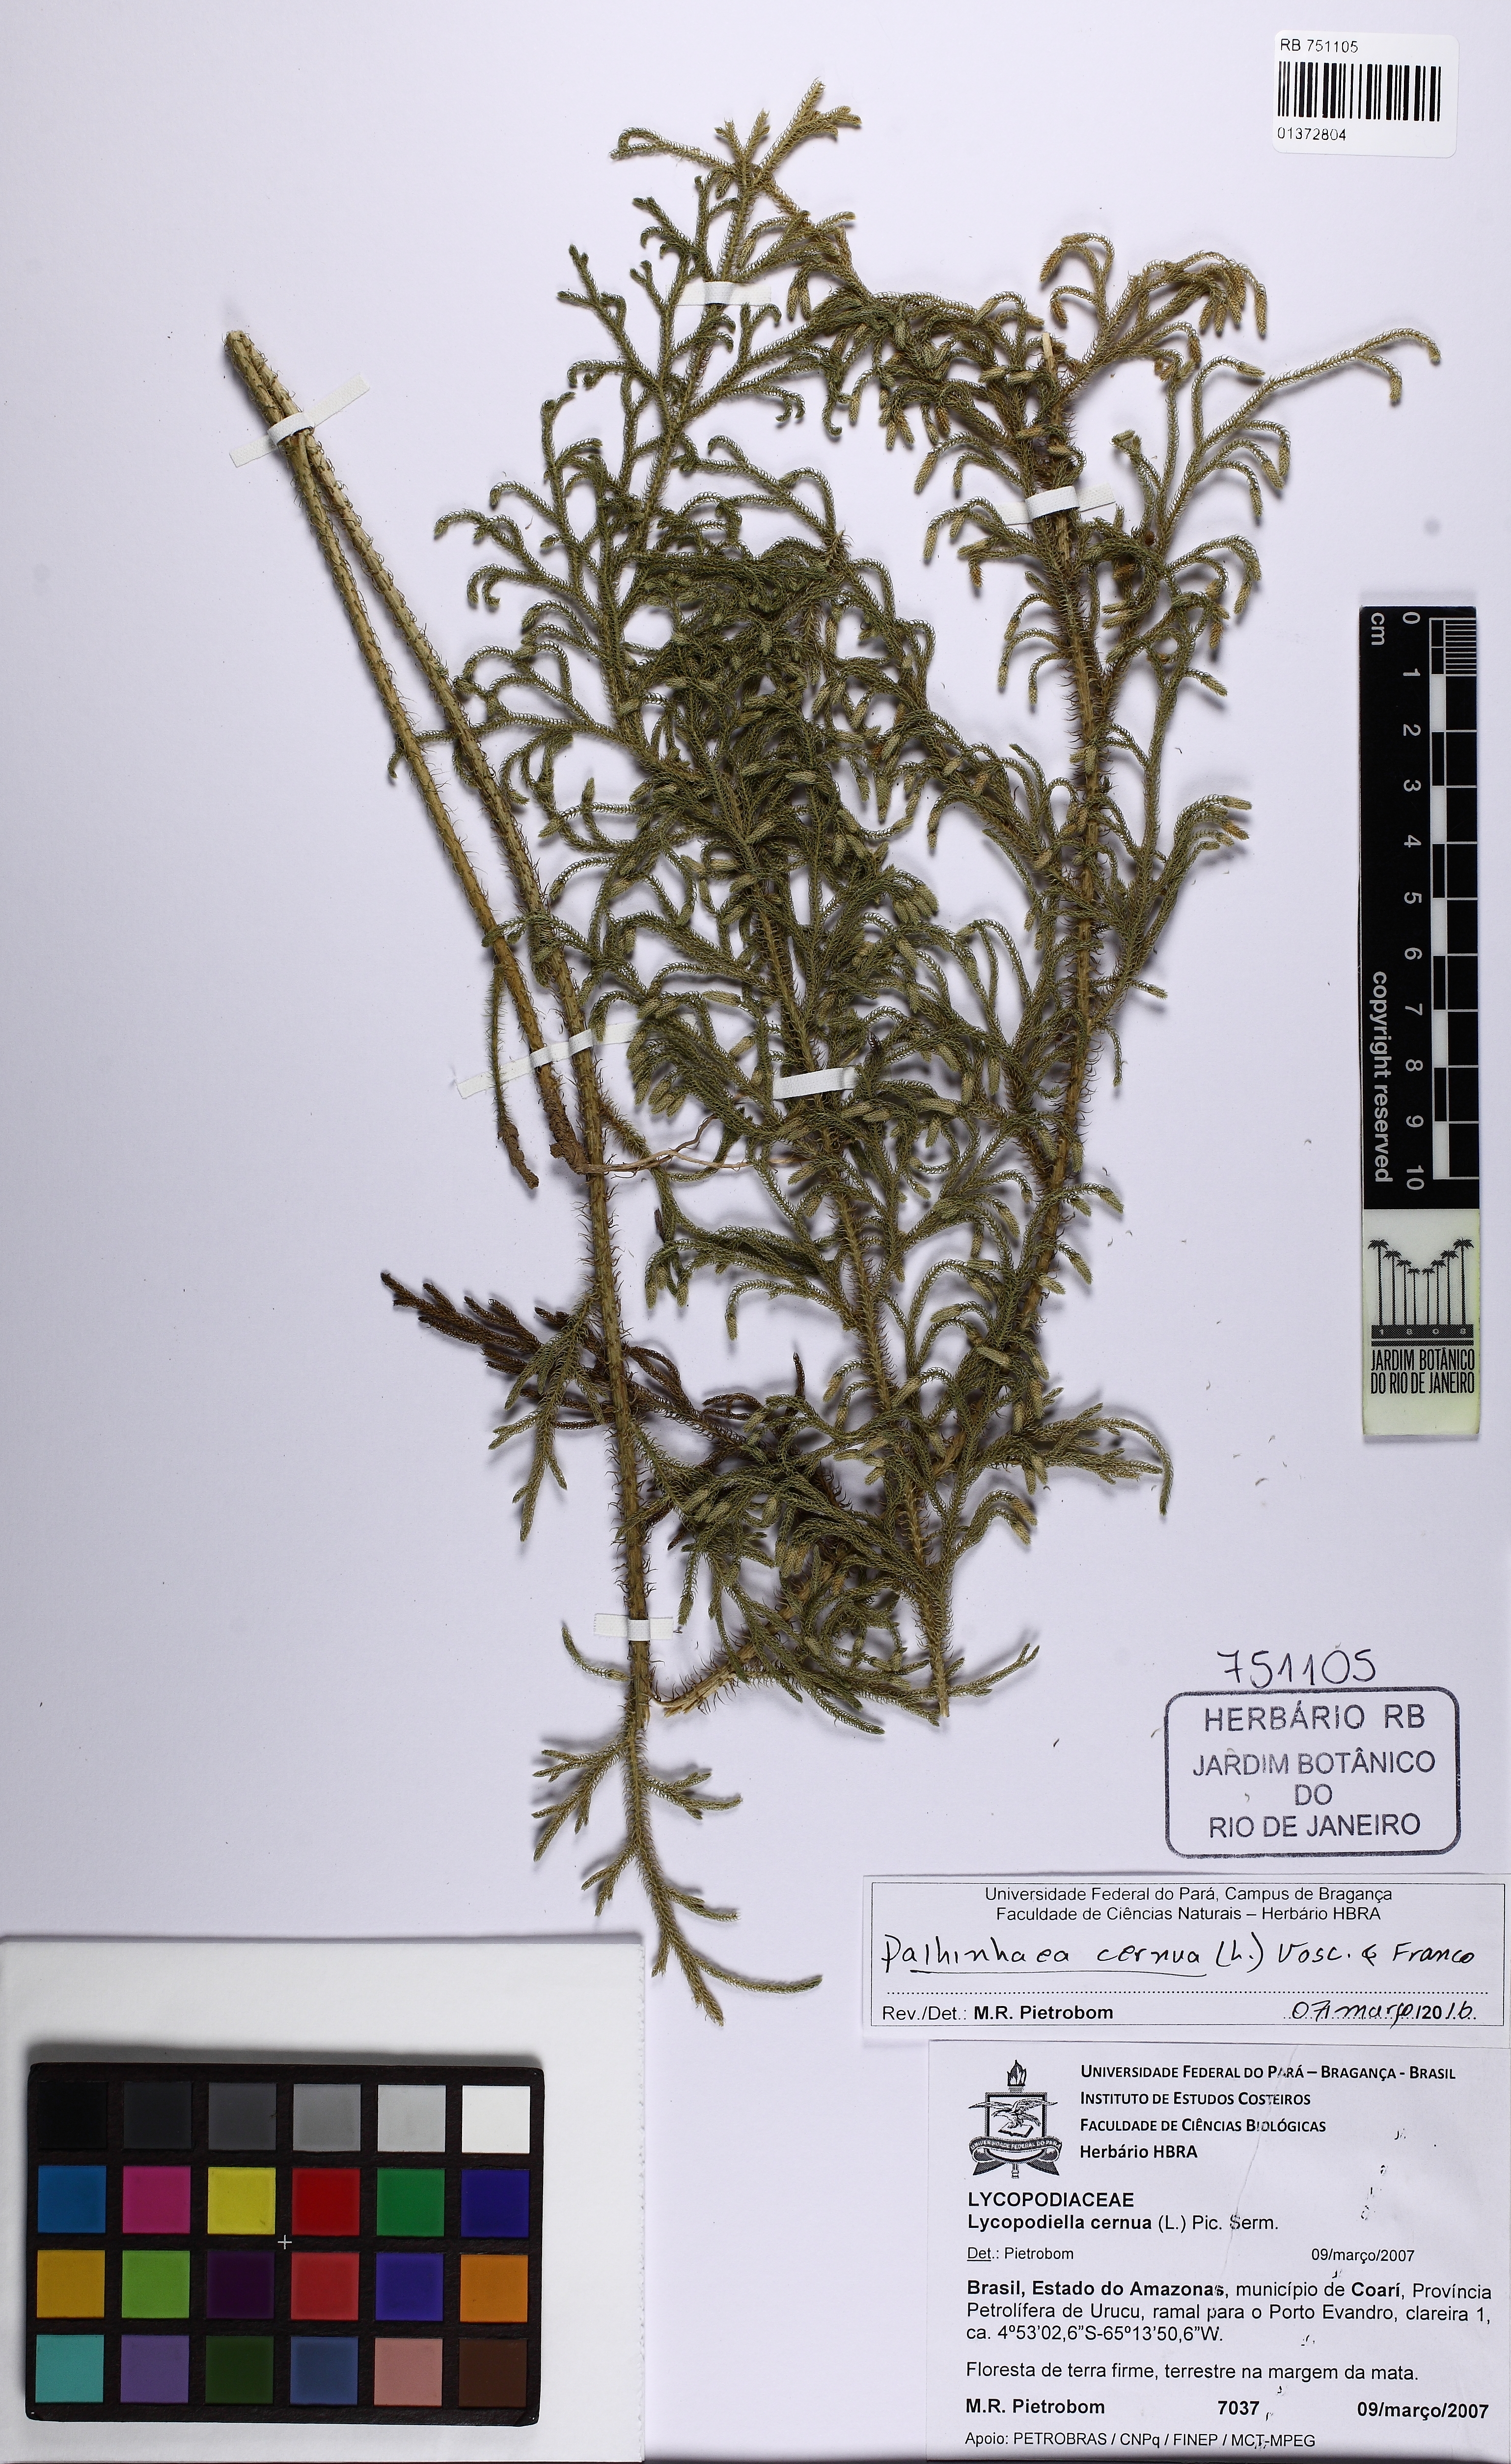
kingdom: Plantae
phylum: Tracheophyta
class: Lycopodiopsida
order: Lycopodiales
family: Lycopodiaceae
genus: Palhinhaea
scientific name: Palhinhaea cernua
